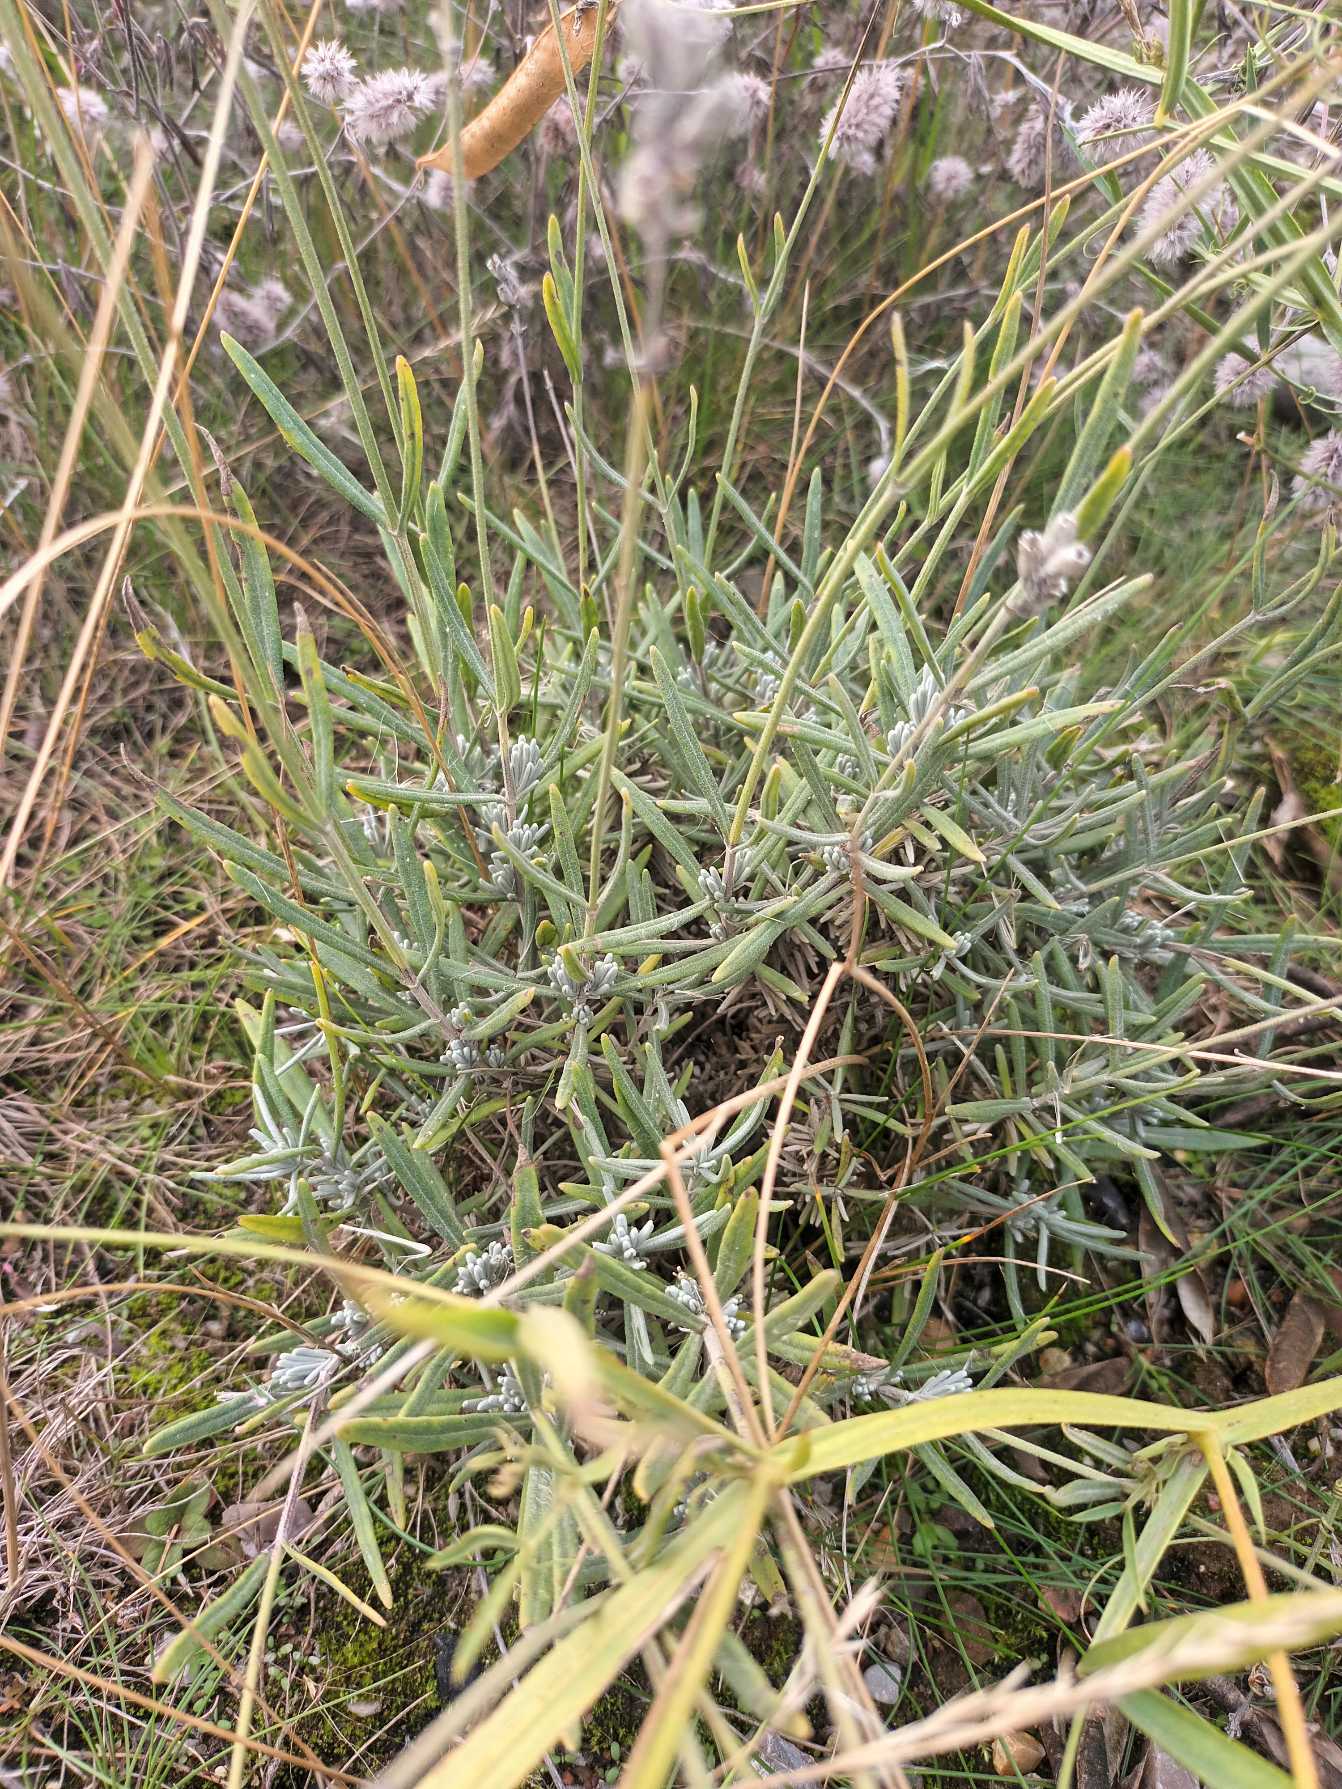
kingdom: Plantae
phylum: Tracheophyta
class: Magnoliopsida
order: Lamiales
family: Lamiaceae
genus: Lavandula
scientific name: Lavandula angustifolia
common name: Ægte lavendel
